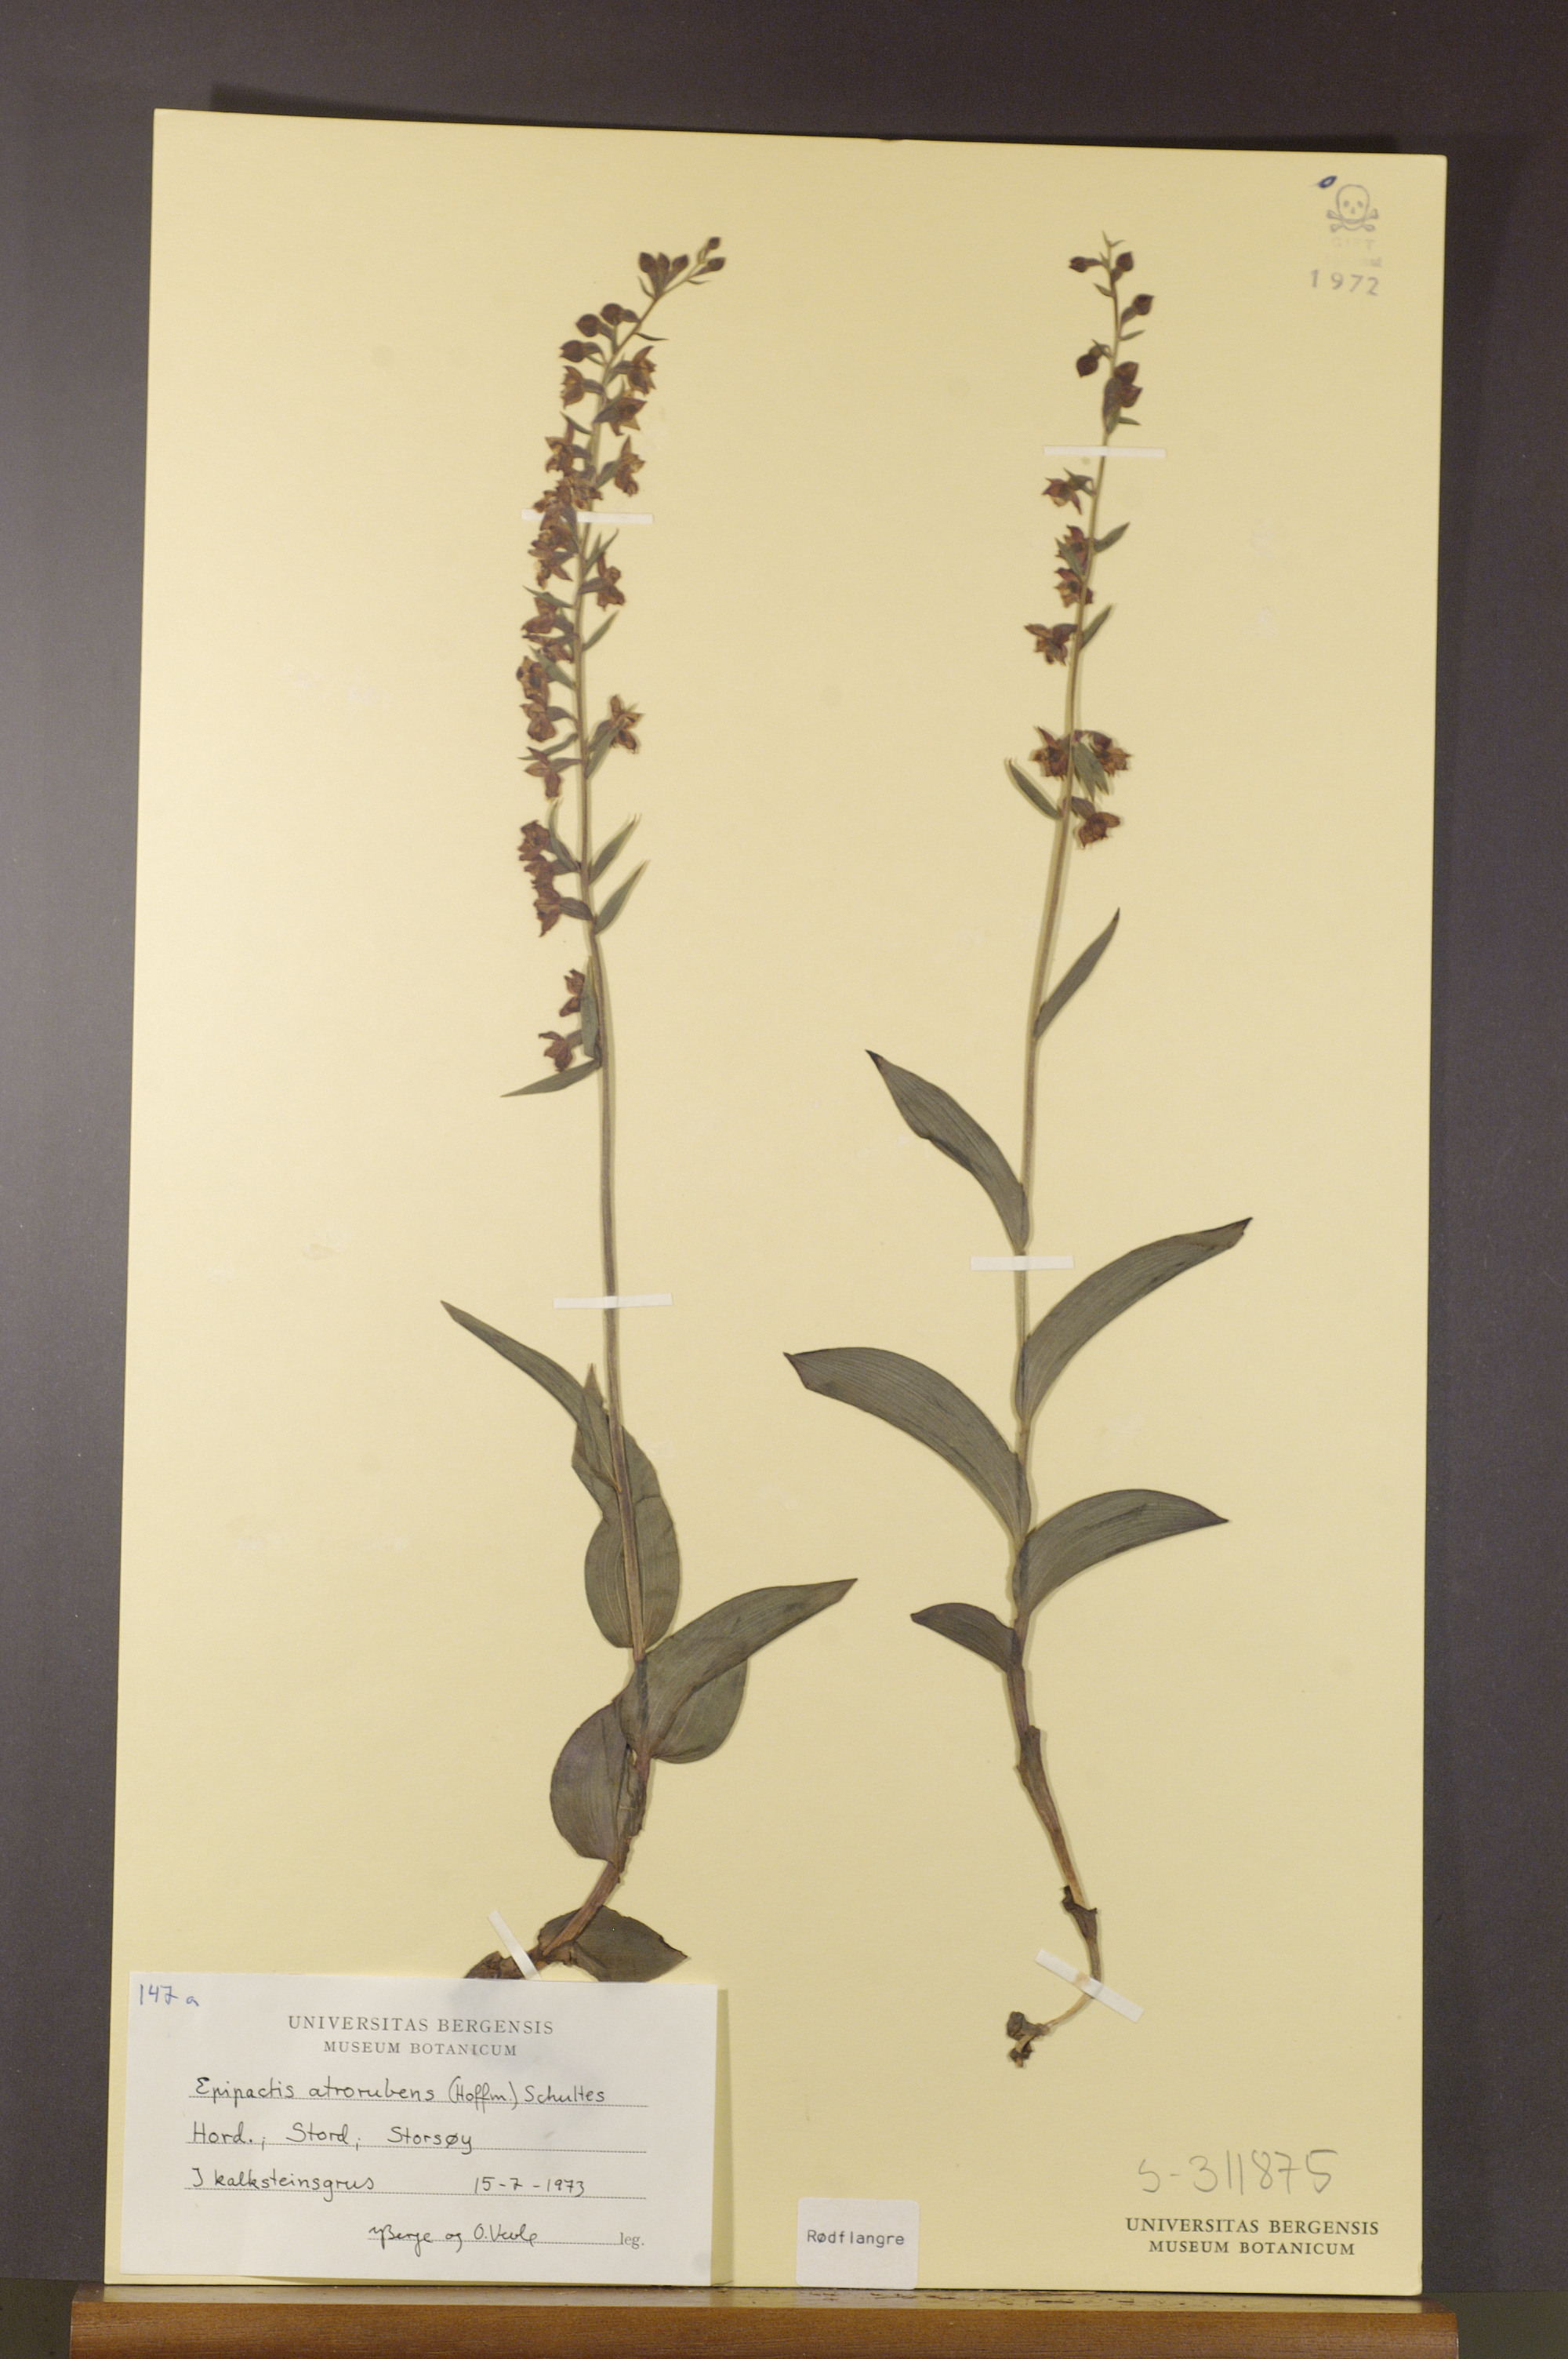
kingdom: Plantae
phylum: Tracheophyta
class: Liliopsida
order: Asparagales
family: Orchidaceae
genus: Epipactis
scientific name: Epipactis atrorubens
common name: Dark-red helleborine
